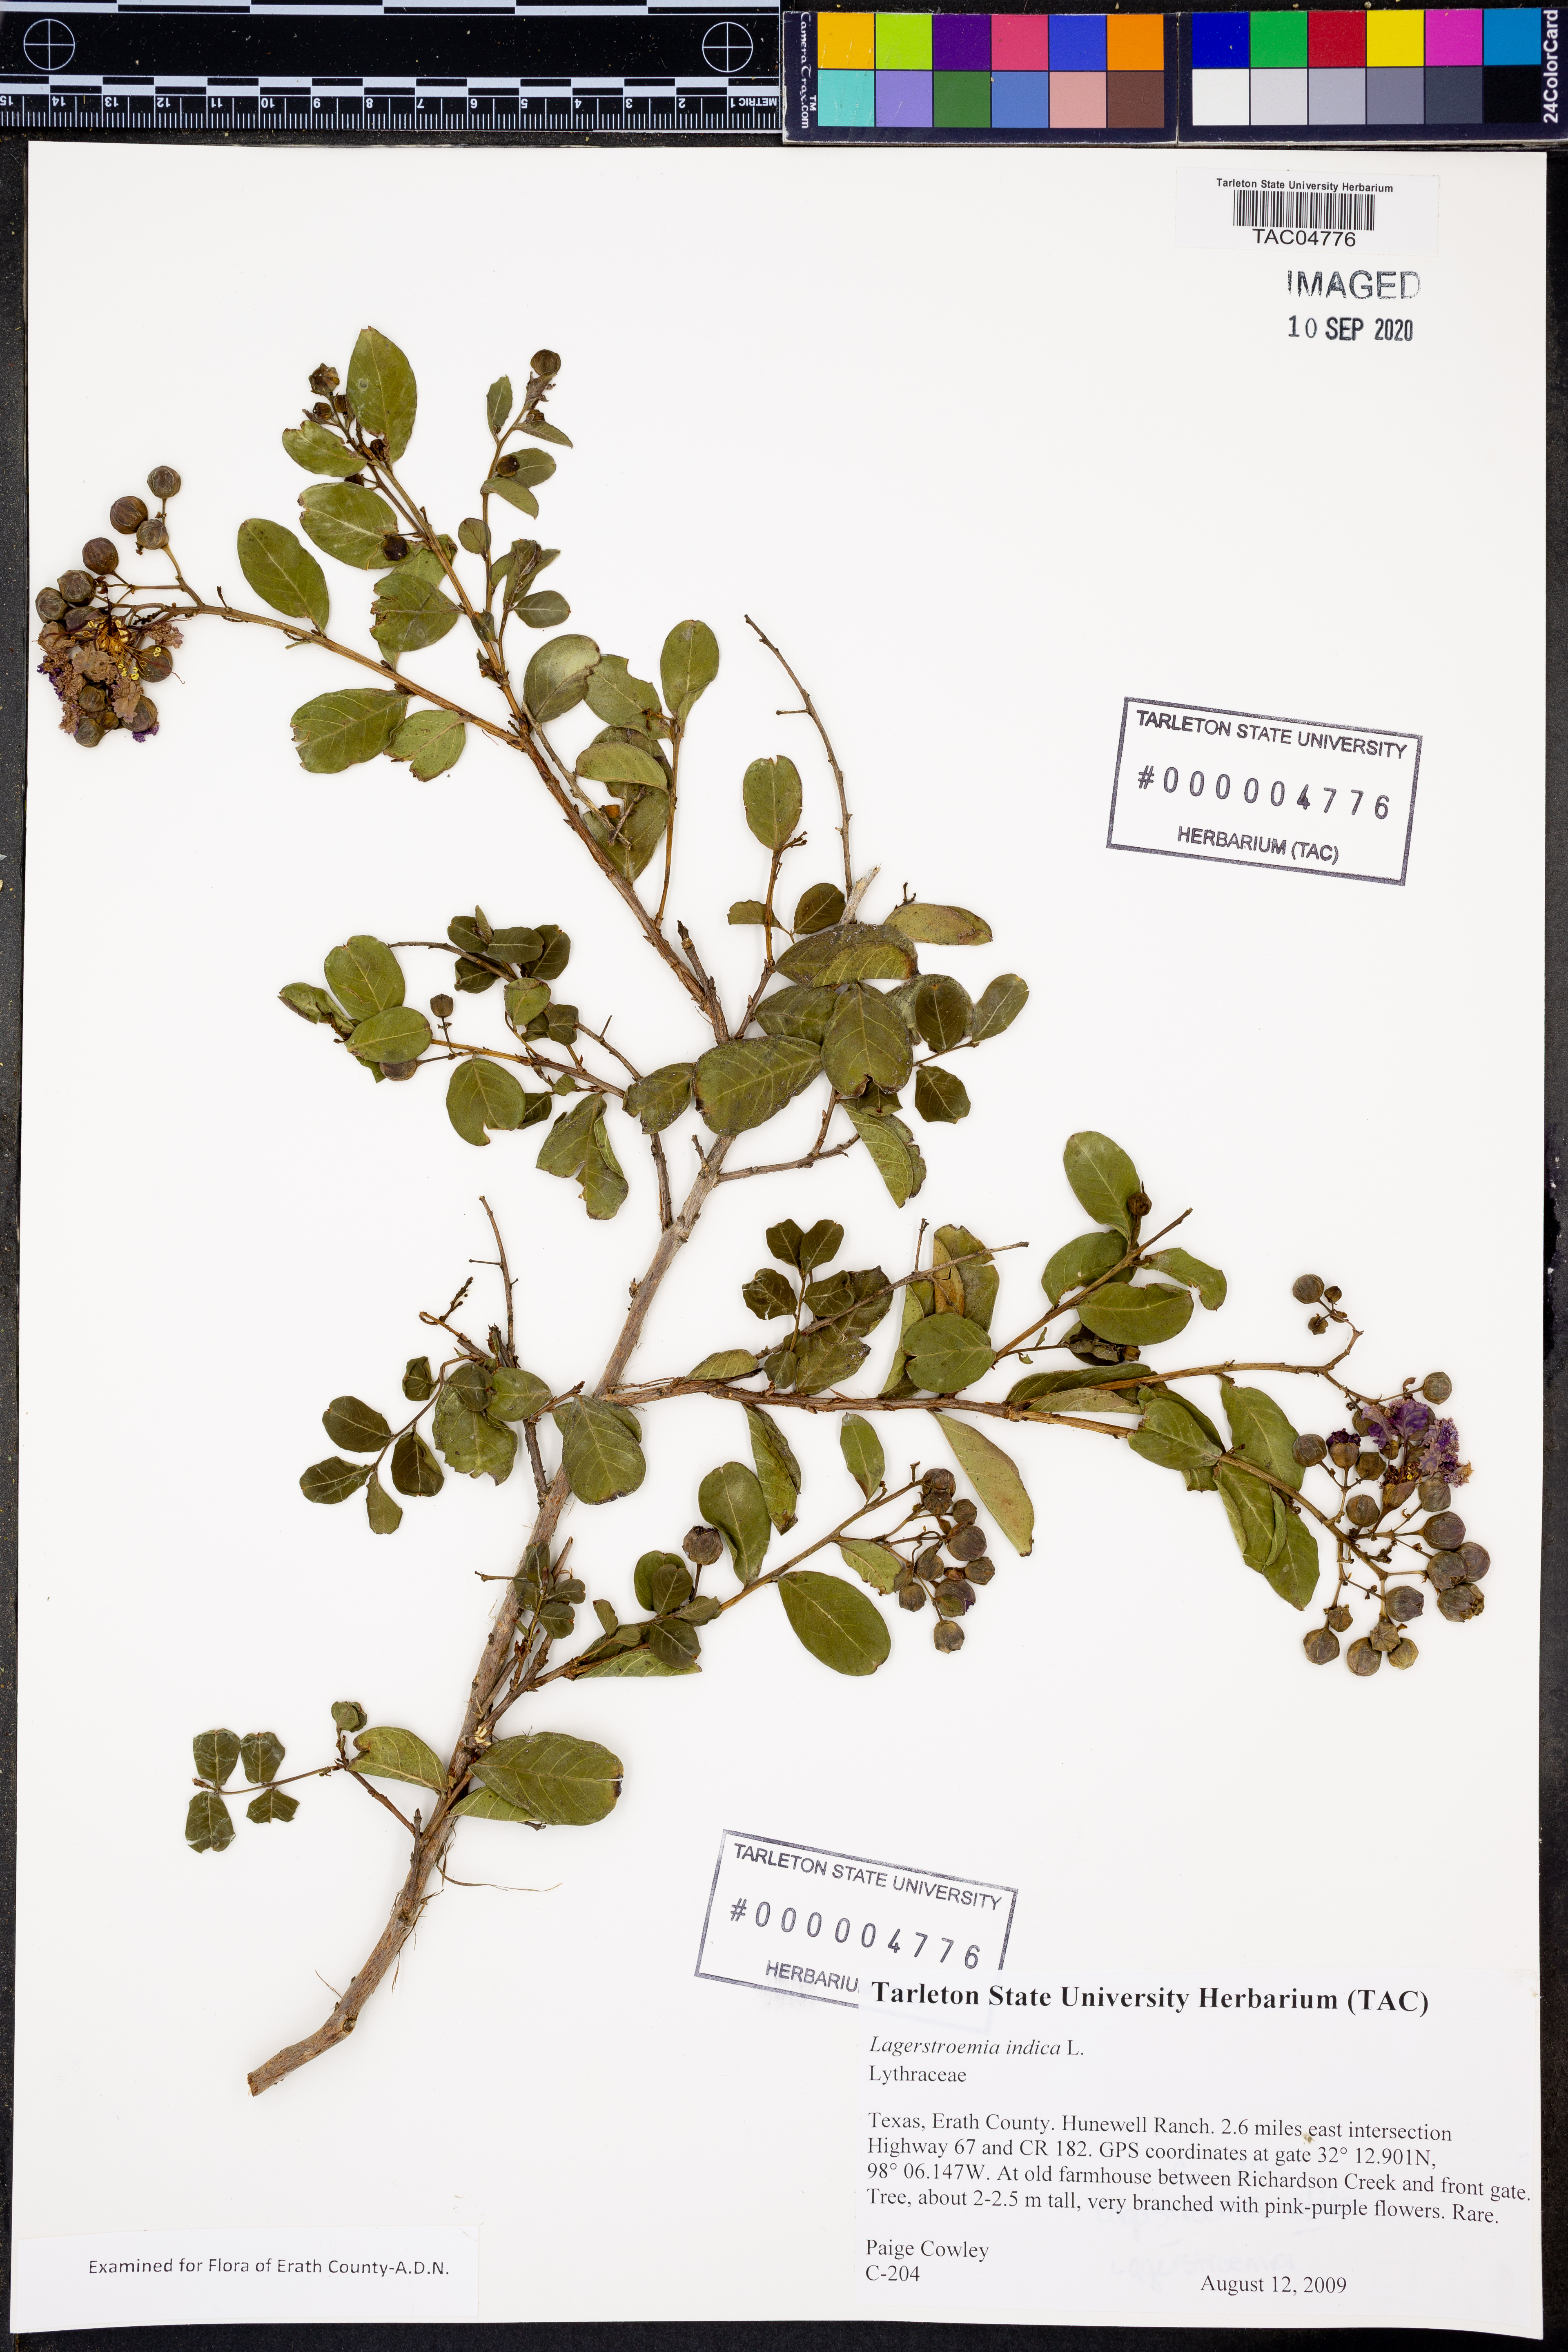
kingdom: Plantae
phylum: Tracheophyta
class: Magnoliopsida
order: Myrtales
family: Lythraceae
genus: Lagerstroemia
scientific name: Lagerstroemia indica
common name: Crape-myrtle
